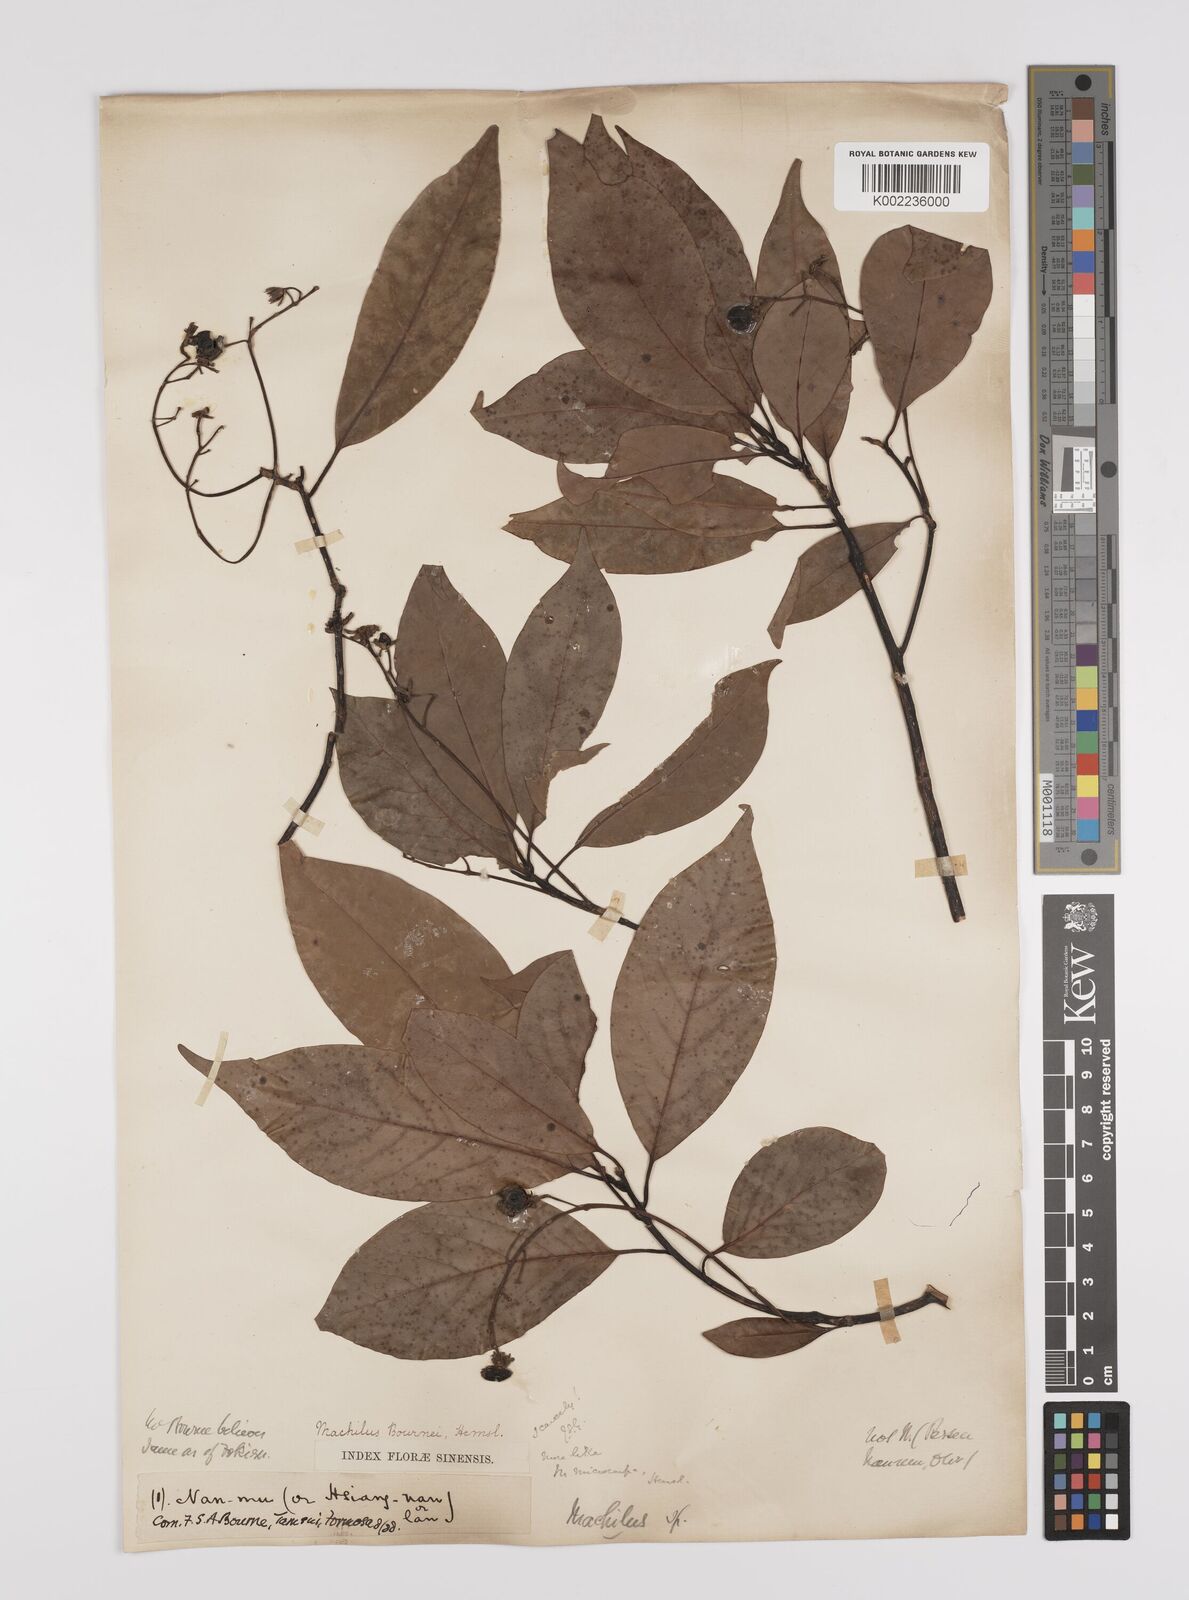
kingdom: Plantae
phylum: Tracheophyta
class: Magnoliopsida
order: Laurales
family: Lauraceae
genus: Persea
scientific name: Persea
